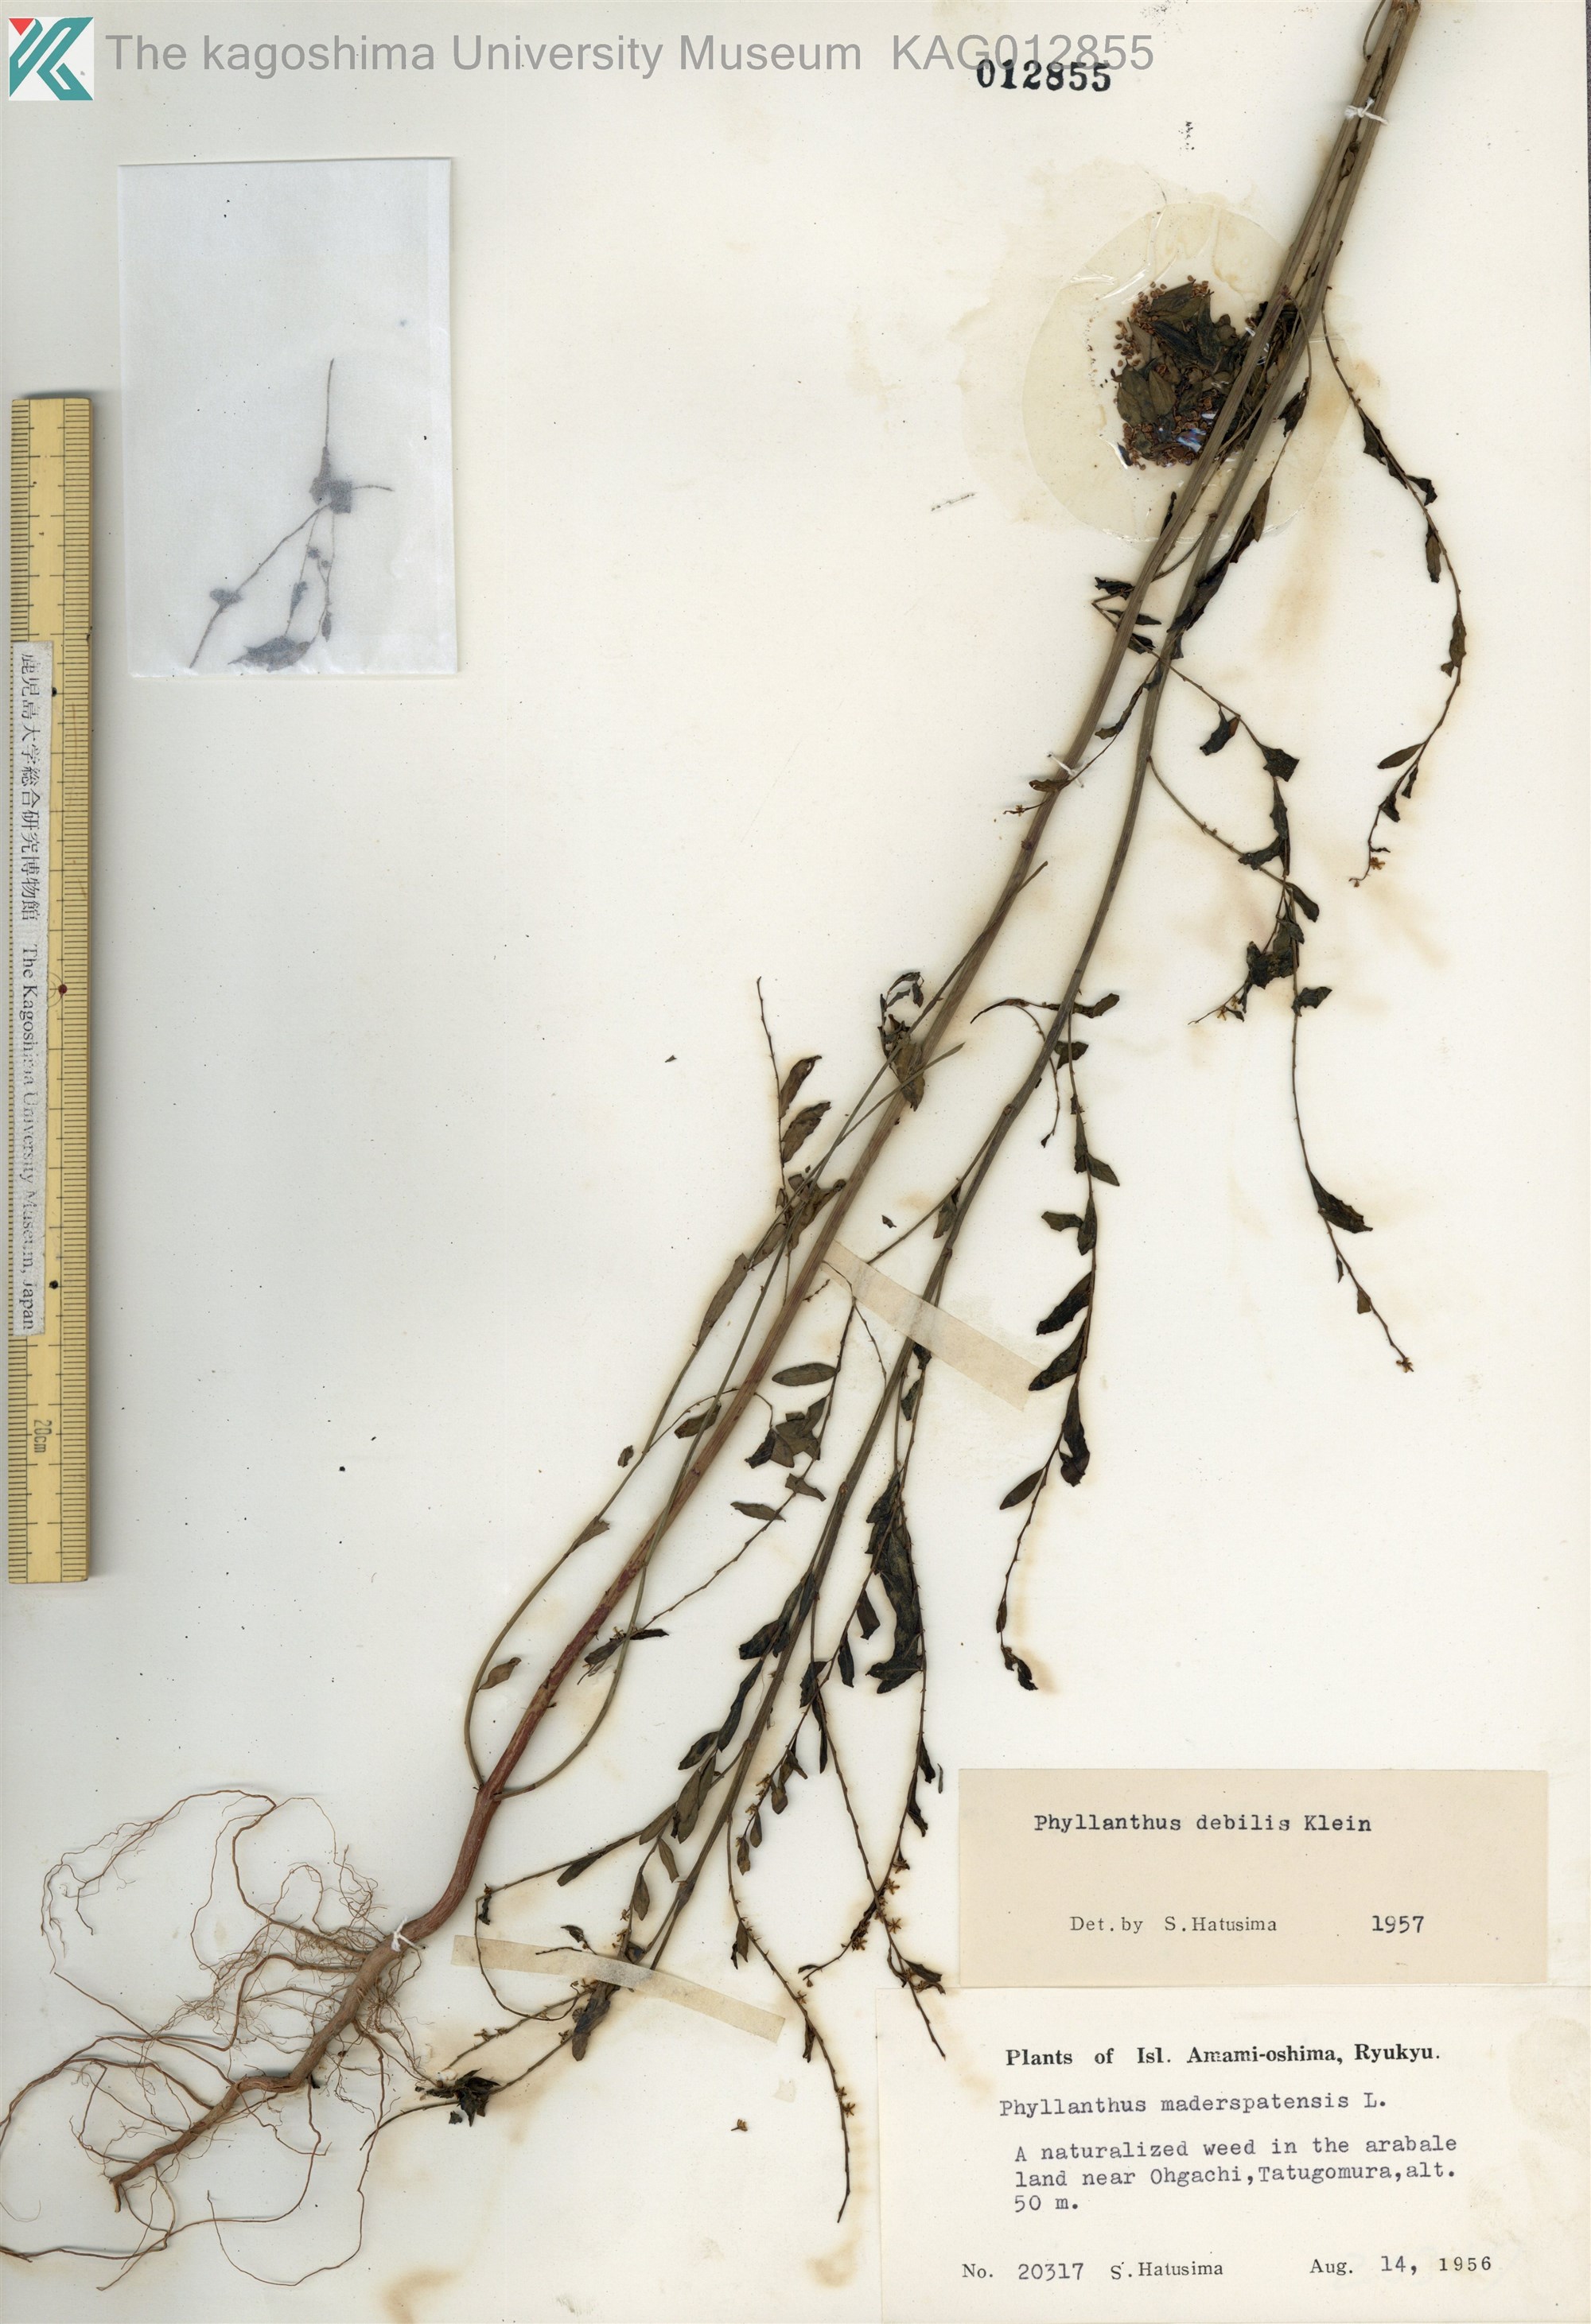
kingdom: Plantae
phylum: Tracheophyta
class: Magnoliopsida
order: Malpighiales
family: Phyllanthaceae
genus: Phyllanthus
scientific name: Phyllanthus debilis
